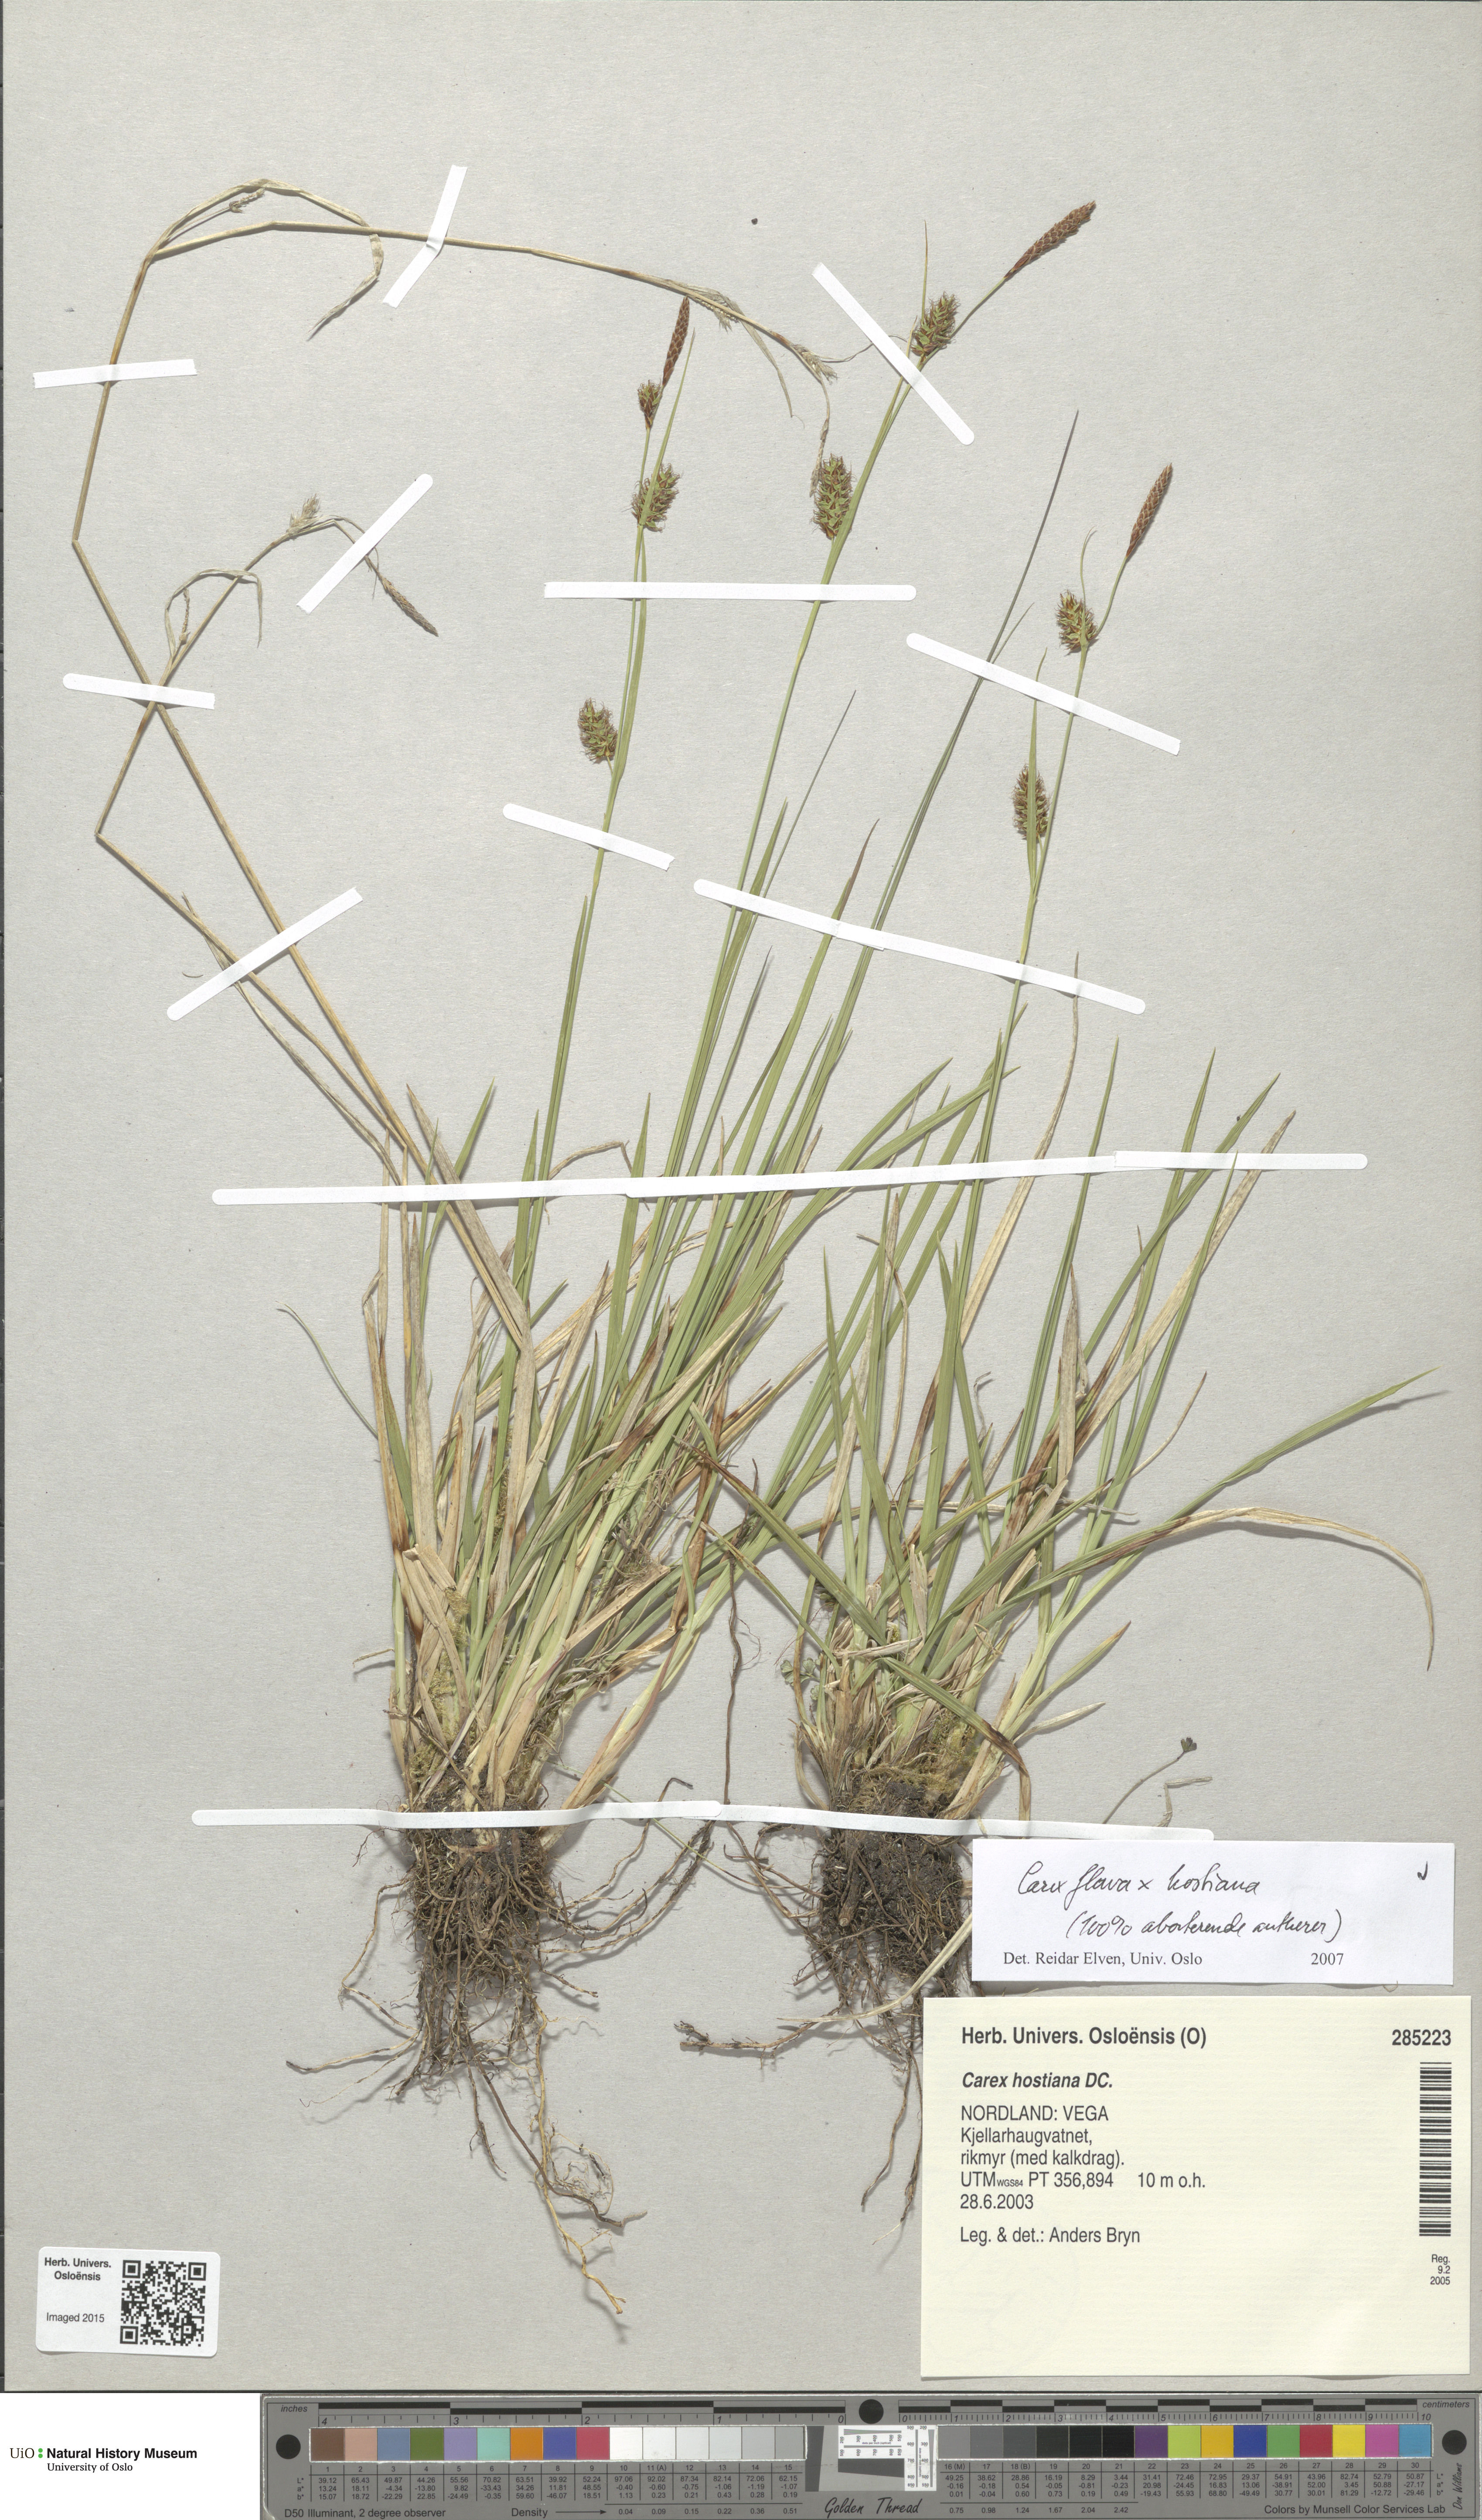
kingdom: Plantae
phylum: Tracheophyta
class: Liliopsida
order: Poales
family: Cyperaceae
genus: Carex
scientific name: Carex
